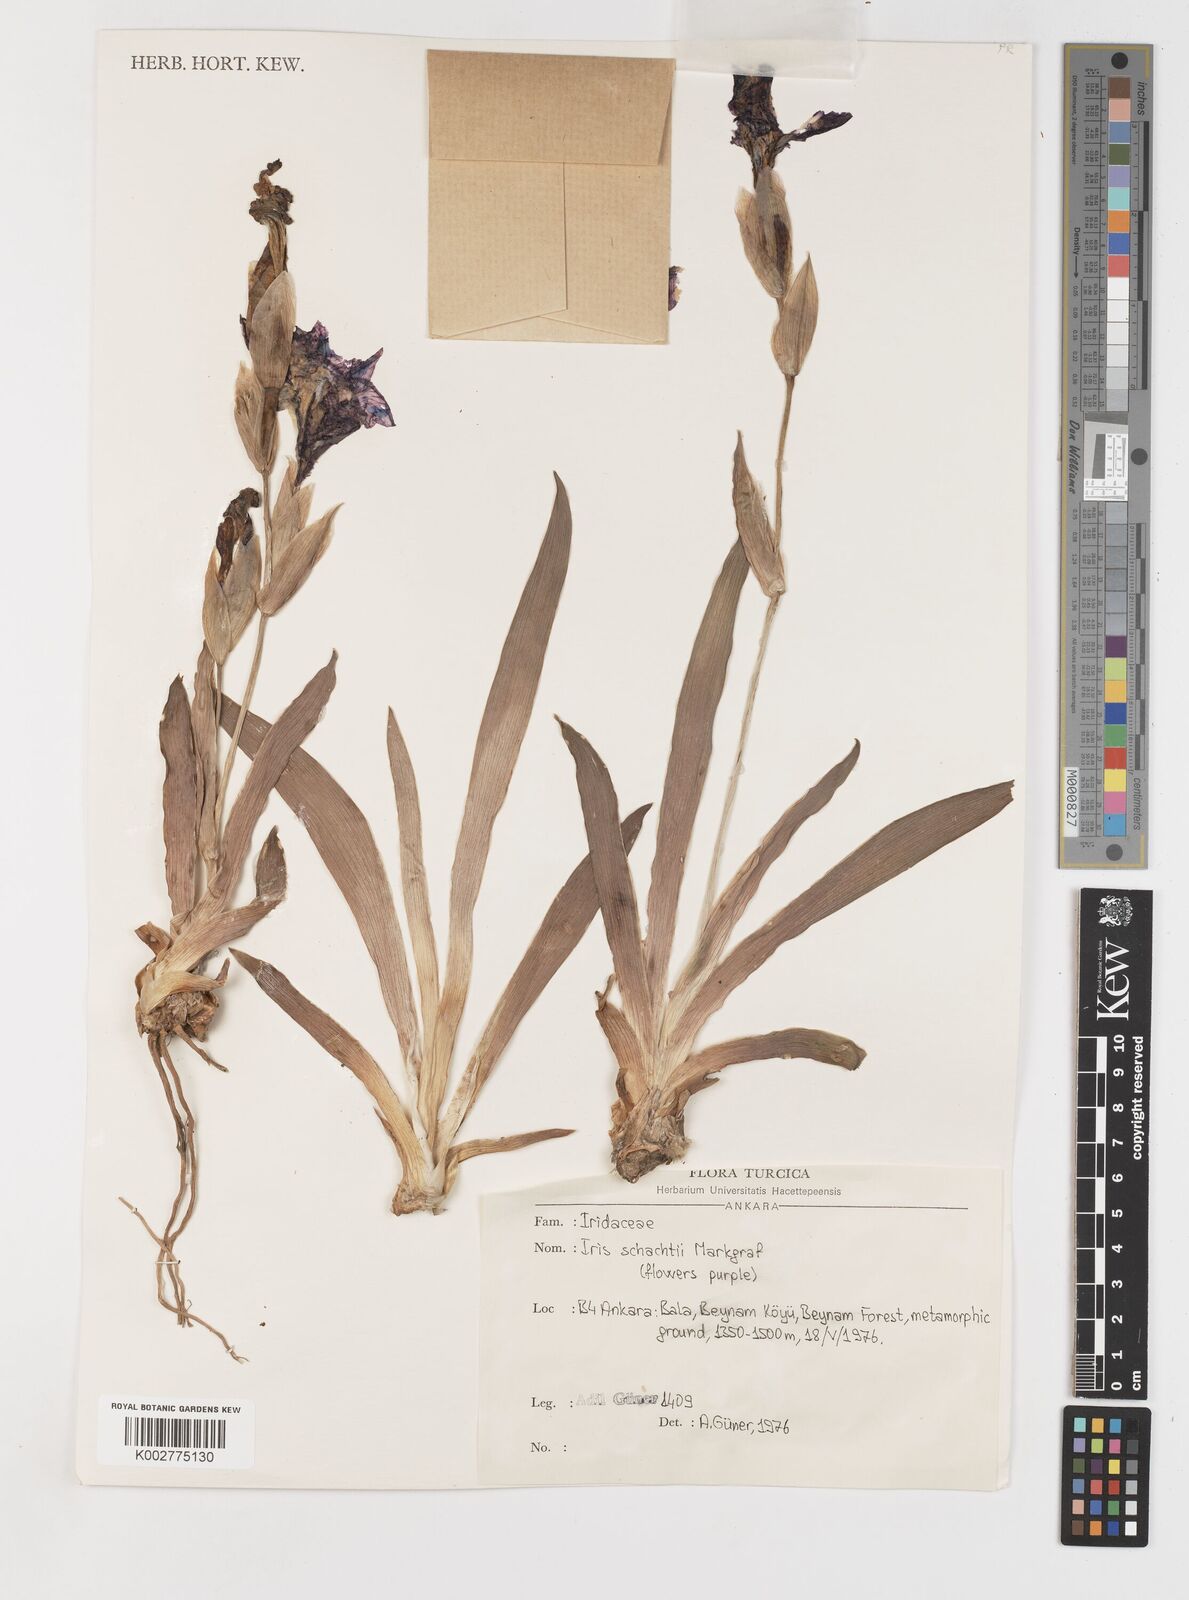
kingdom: Plantae
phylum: Tracheophyta
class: Liliopsida
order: Asparagales
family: Iridaceae
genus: Iris
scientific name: Iris schachtii
